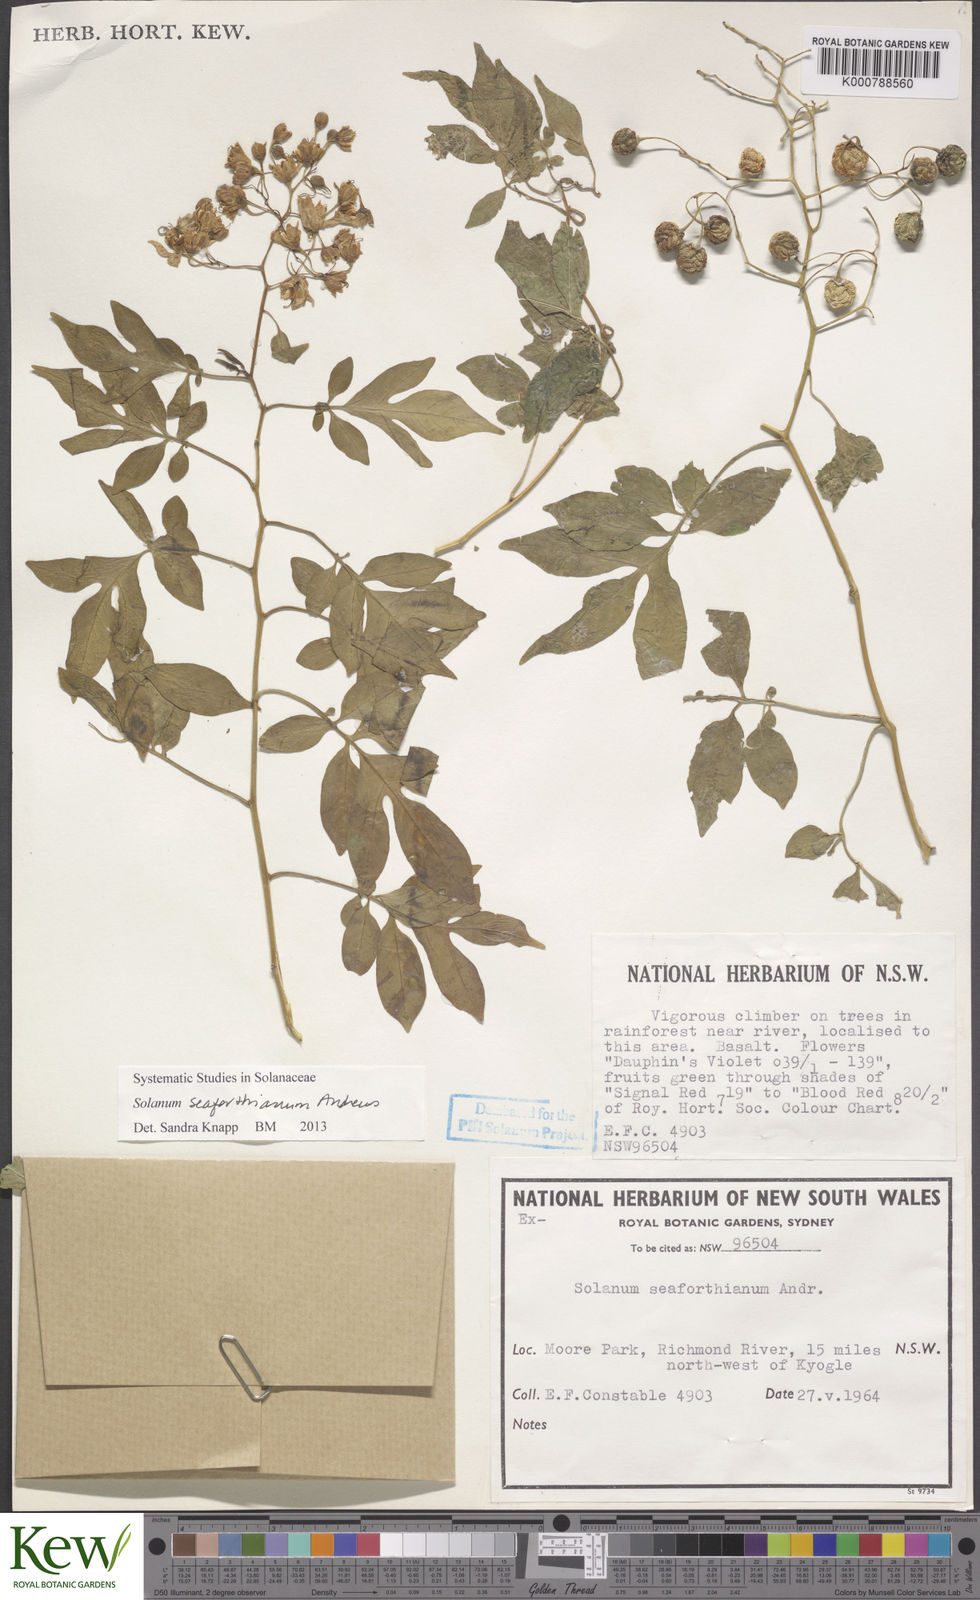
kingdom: Plantae
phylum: Tracheophyta
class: Magnoliopsida
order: Solanales
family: Solanaceae
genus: Solanum
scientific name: Solanum seaforthianum
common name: Brazilian nightshade
